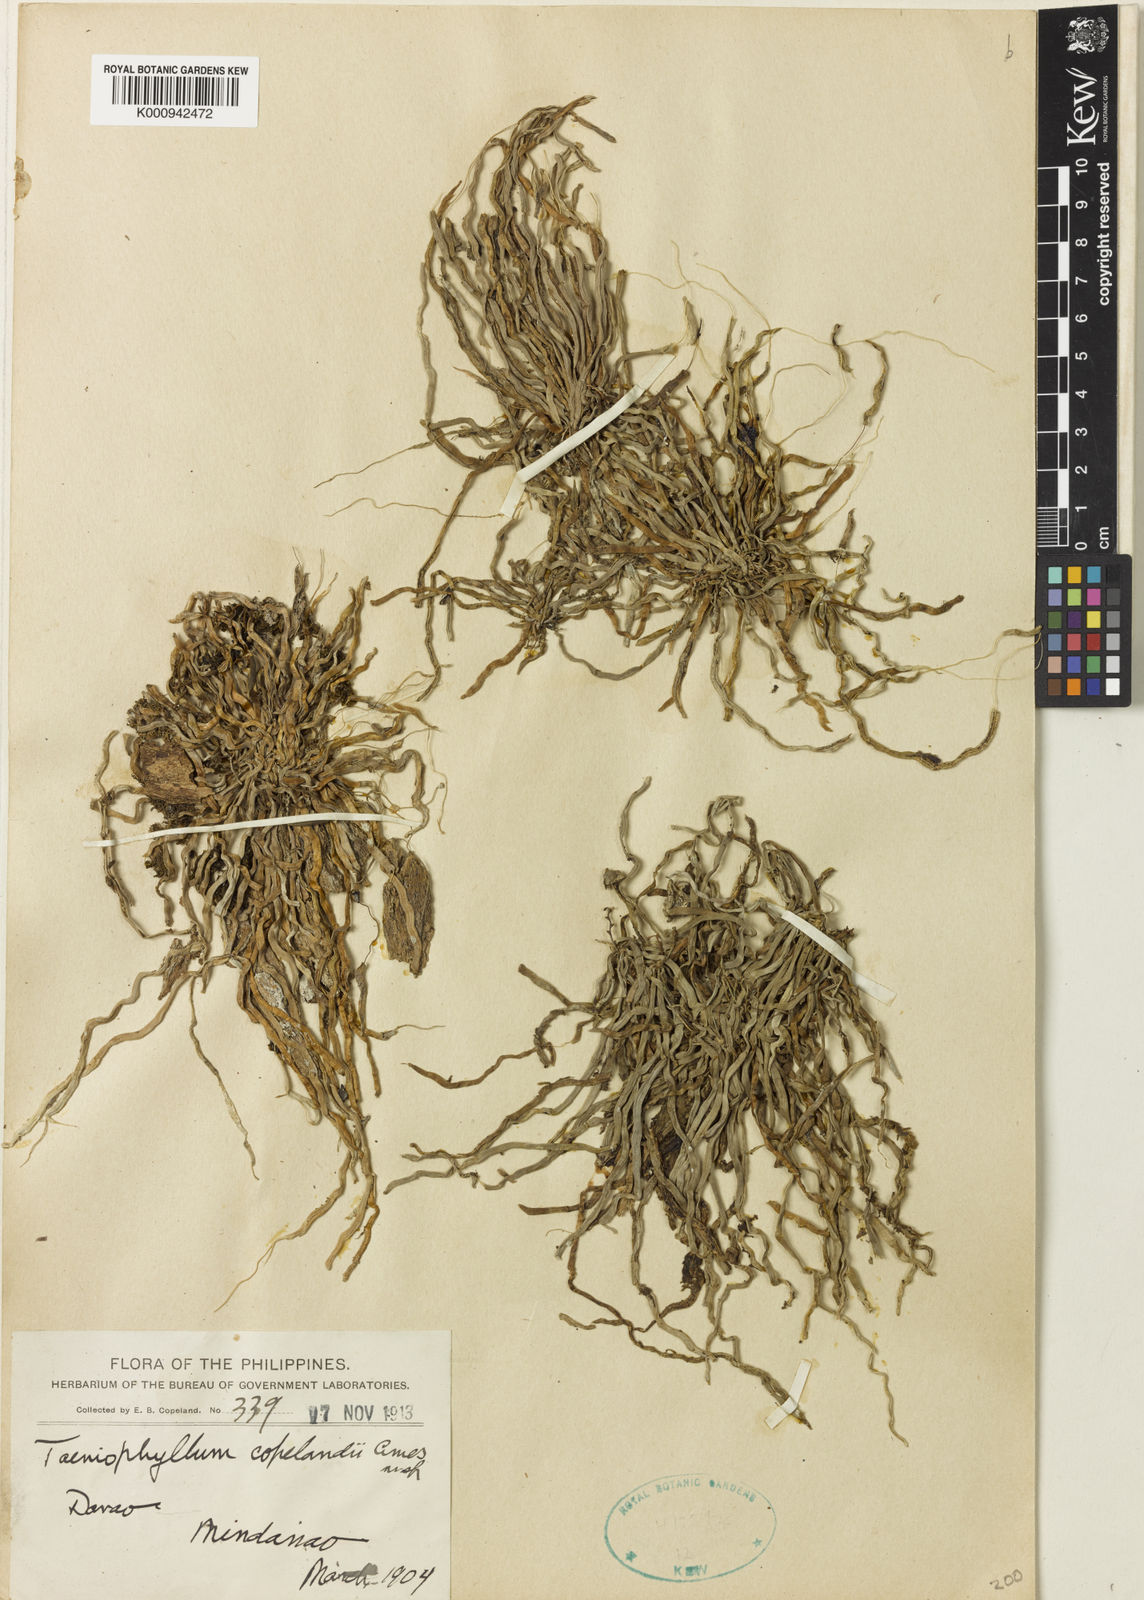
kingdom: Plantae
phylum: Tracheophyta
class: Liliopsida
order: Asparagales
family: Orchidaceae
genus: Taeniophyllum
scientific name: Taeniophyllum copelandii
